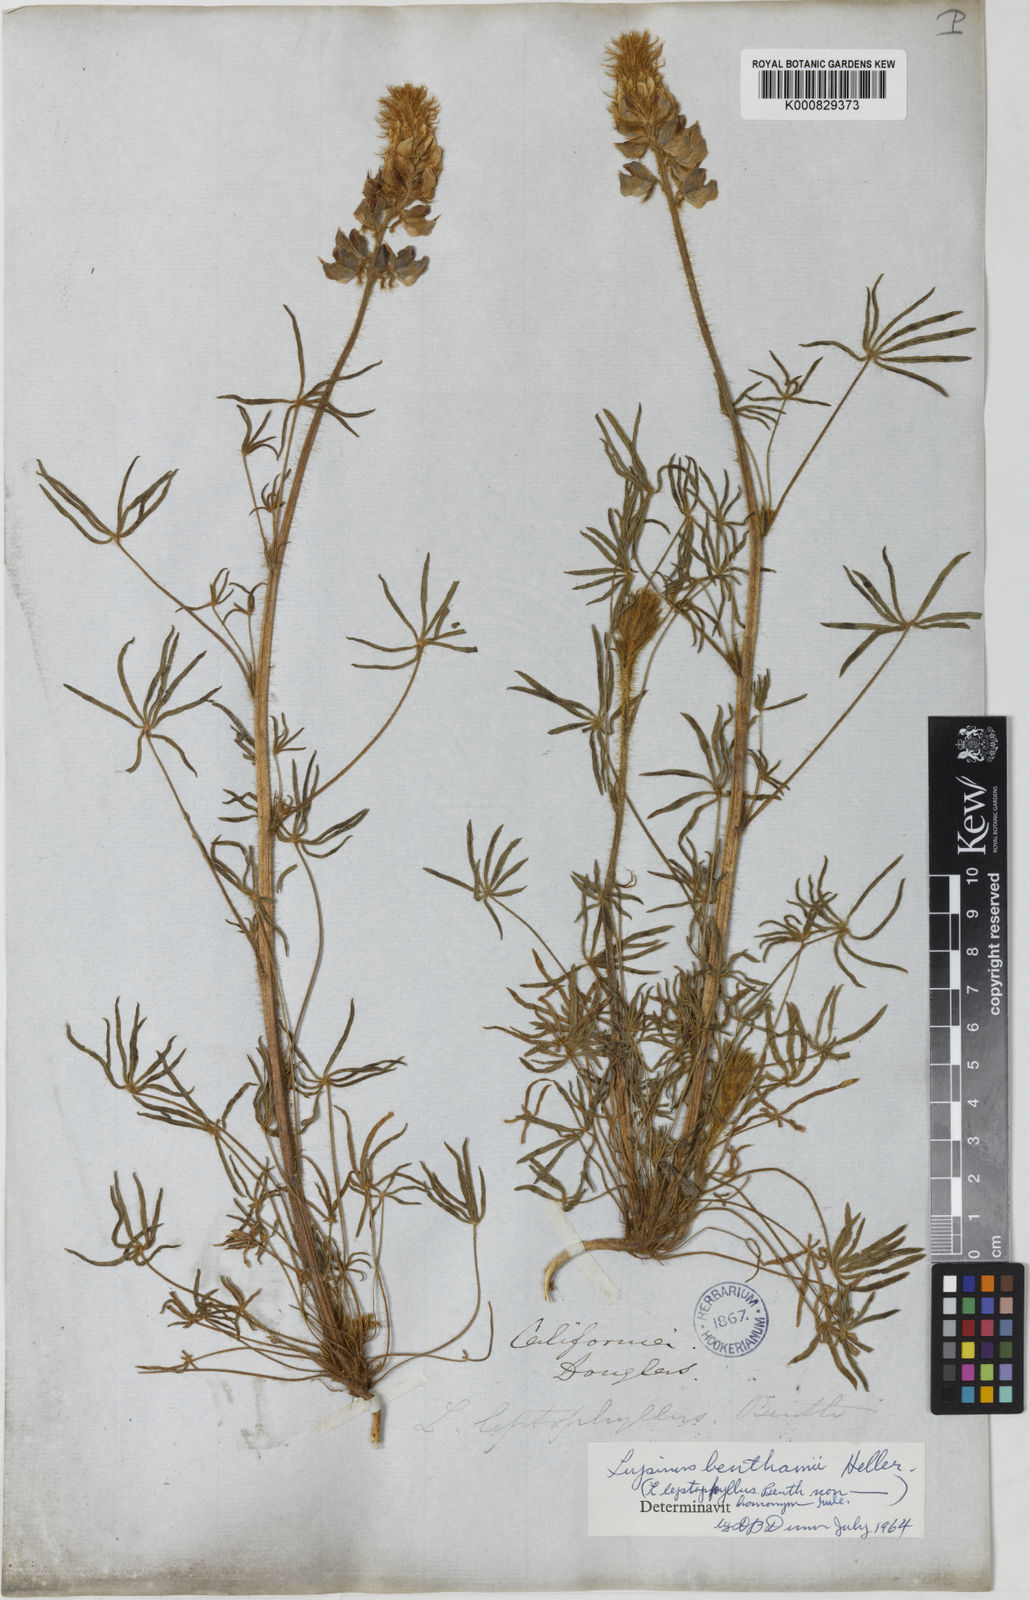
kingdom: Plantae
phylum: Tracheophyta
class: Magnoliopsida
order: Fabales
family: Fabaceae
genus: Lupinus
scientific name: Lupinus benthamii
